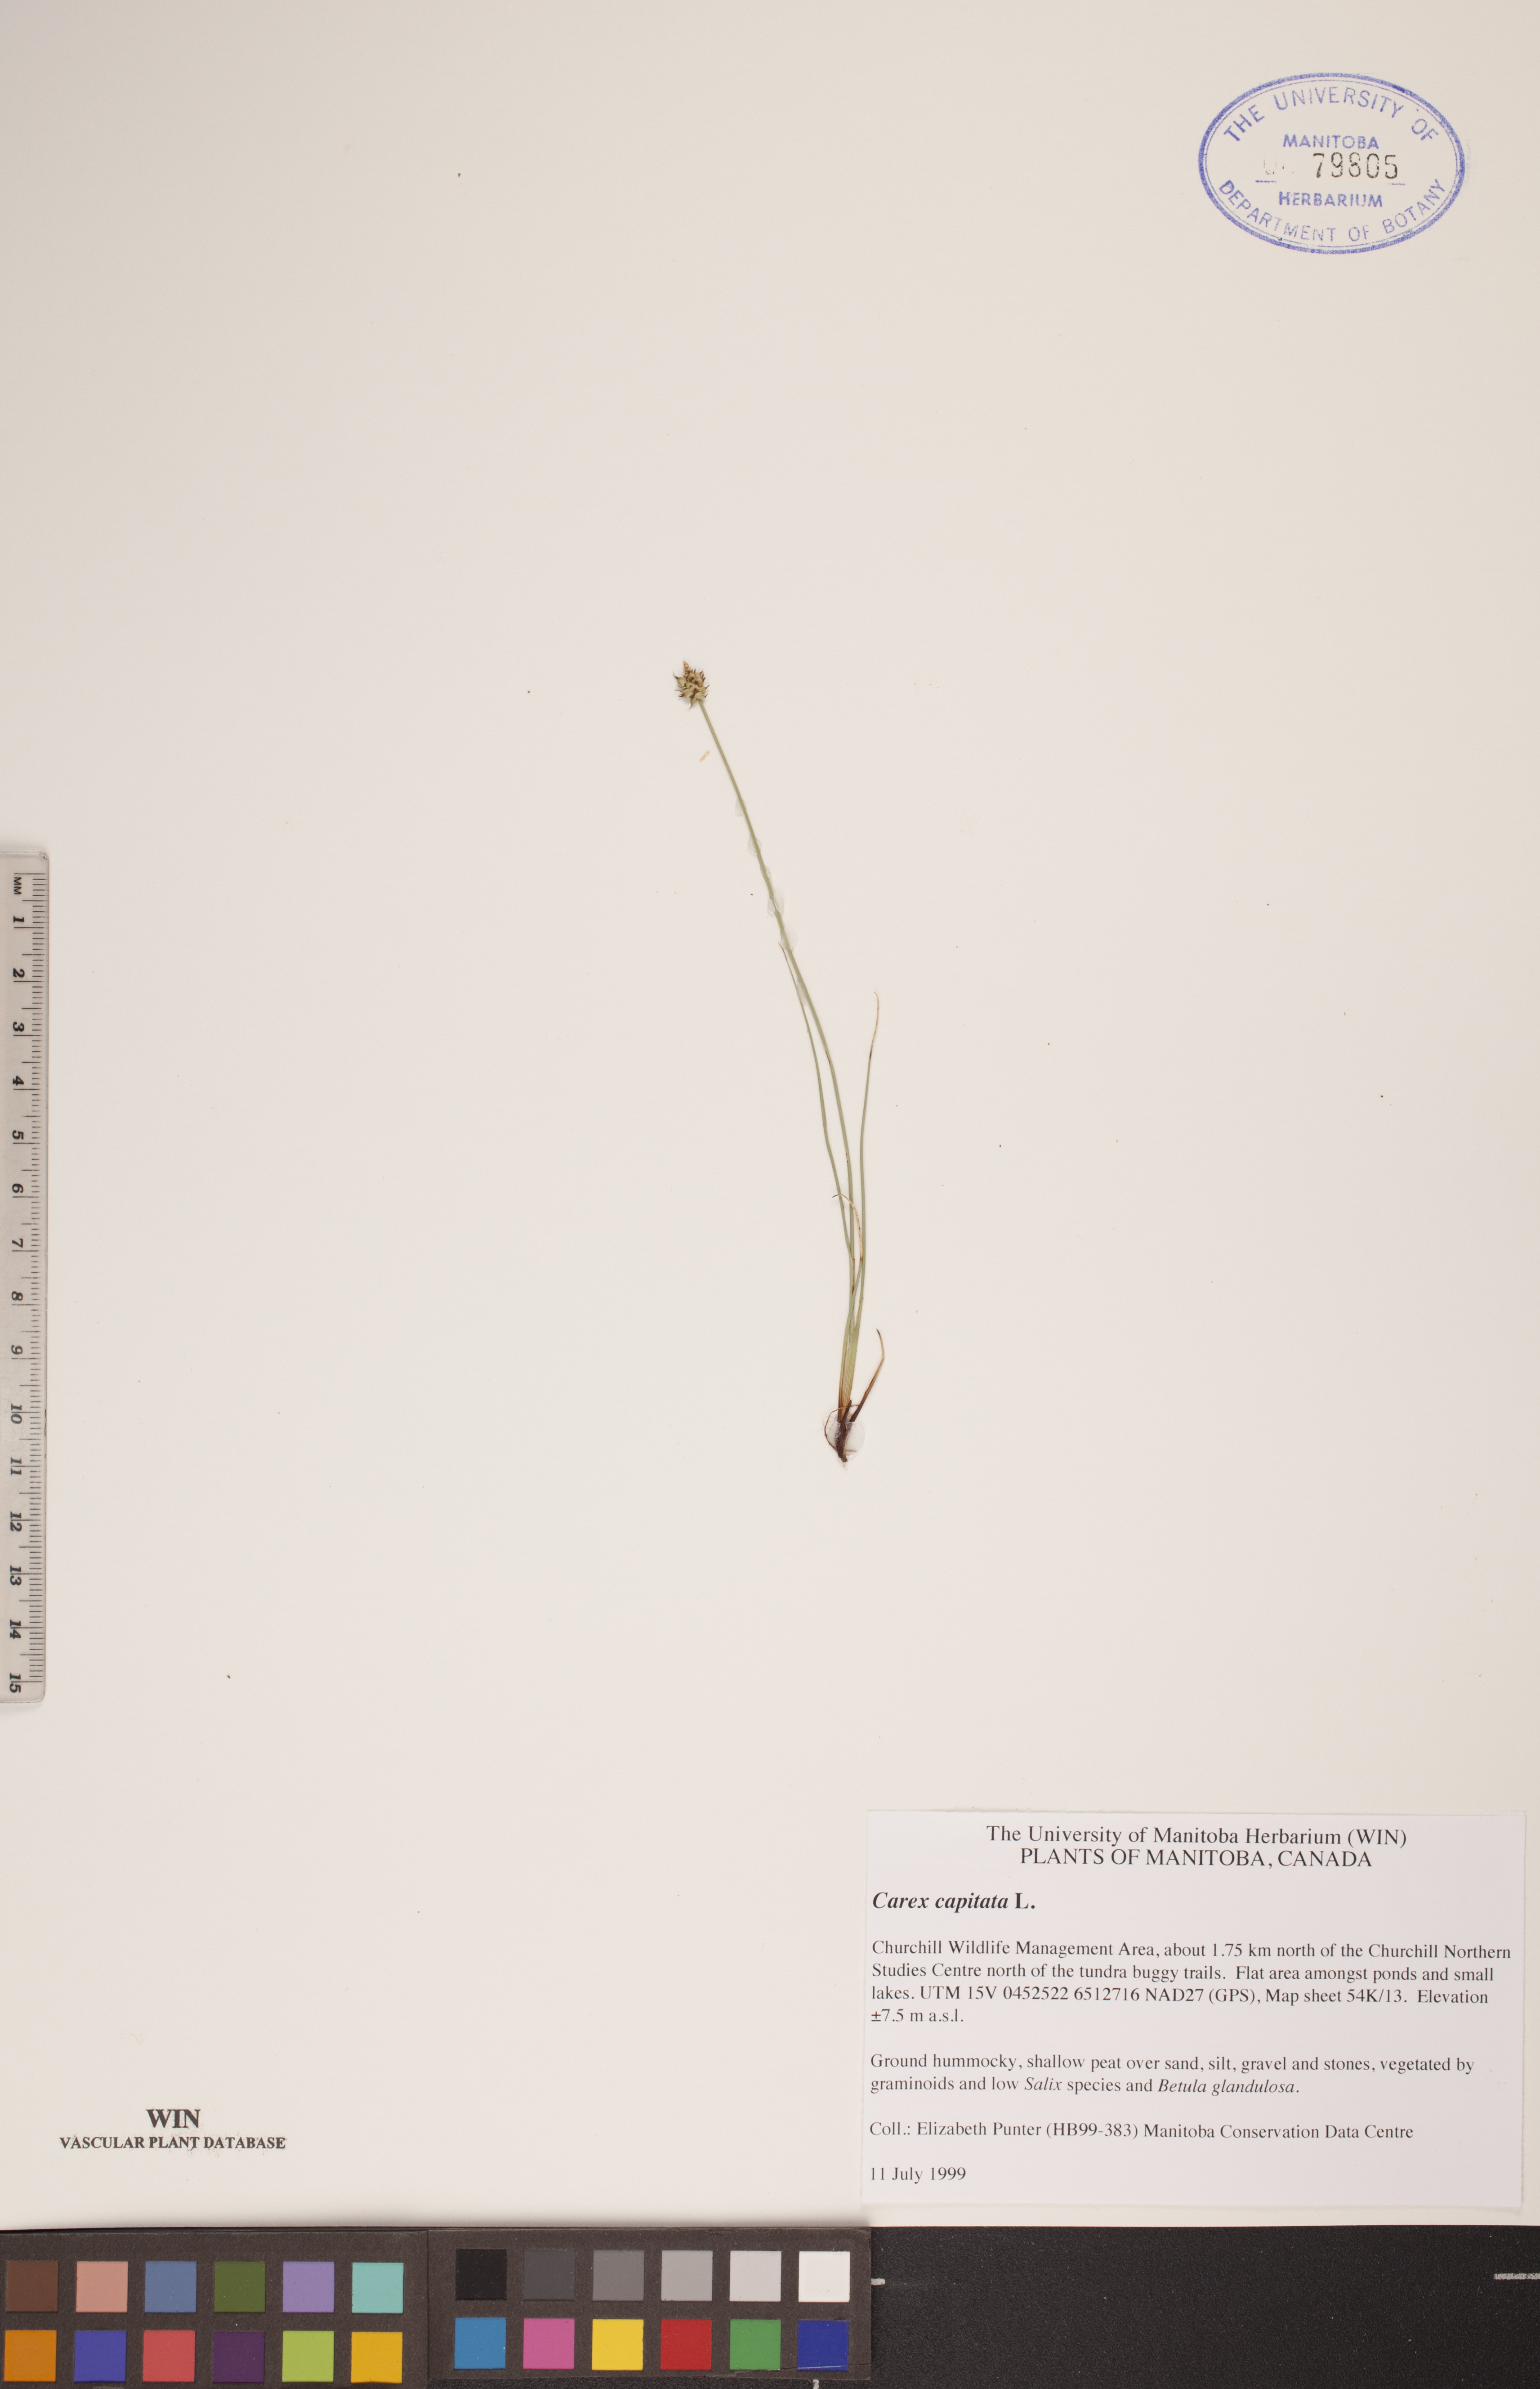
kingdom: Plantae
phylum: Tracheophyta
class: Liliopsida
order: Poales
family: Cyperaceae
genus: Carex
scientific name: Carex capitata
